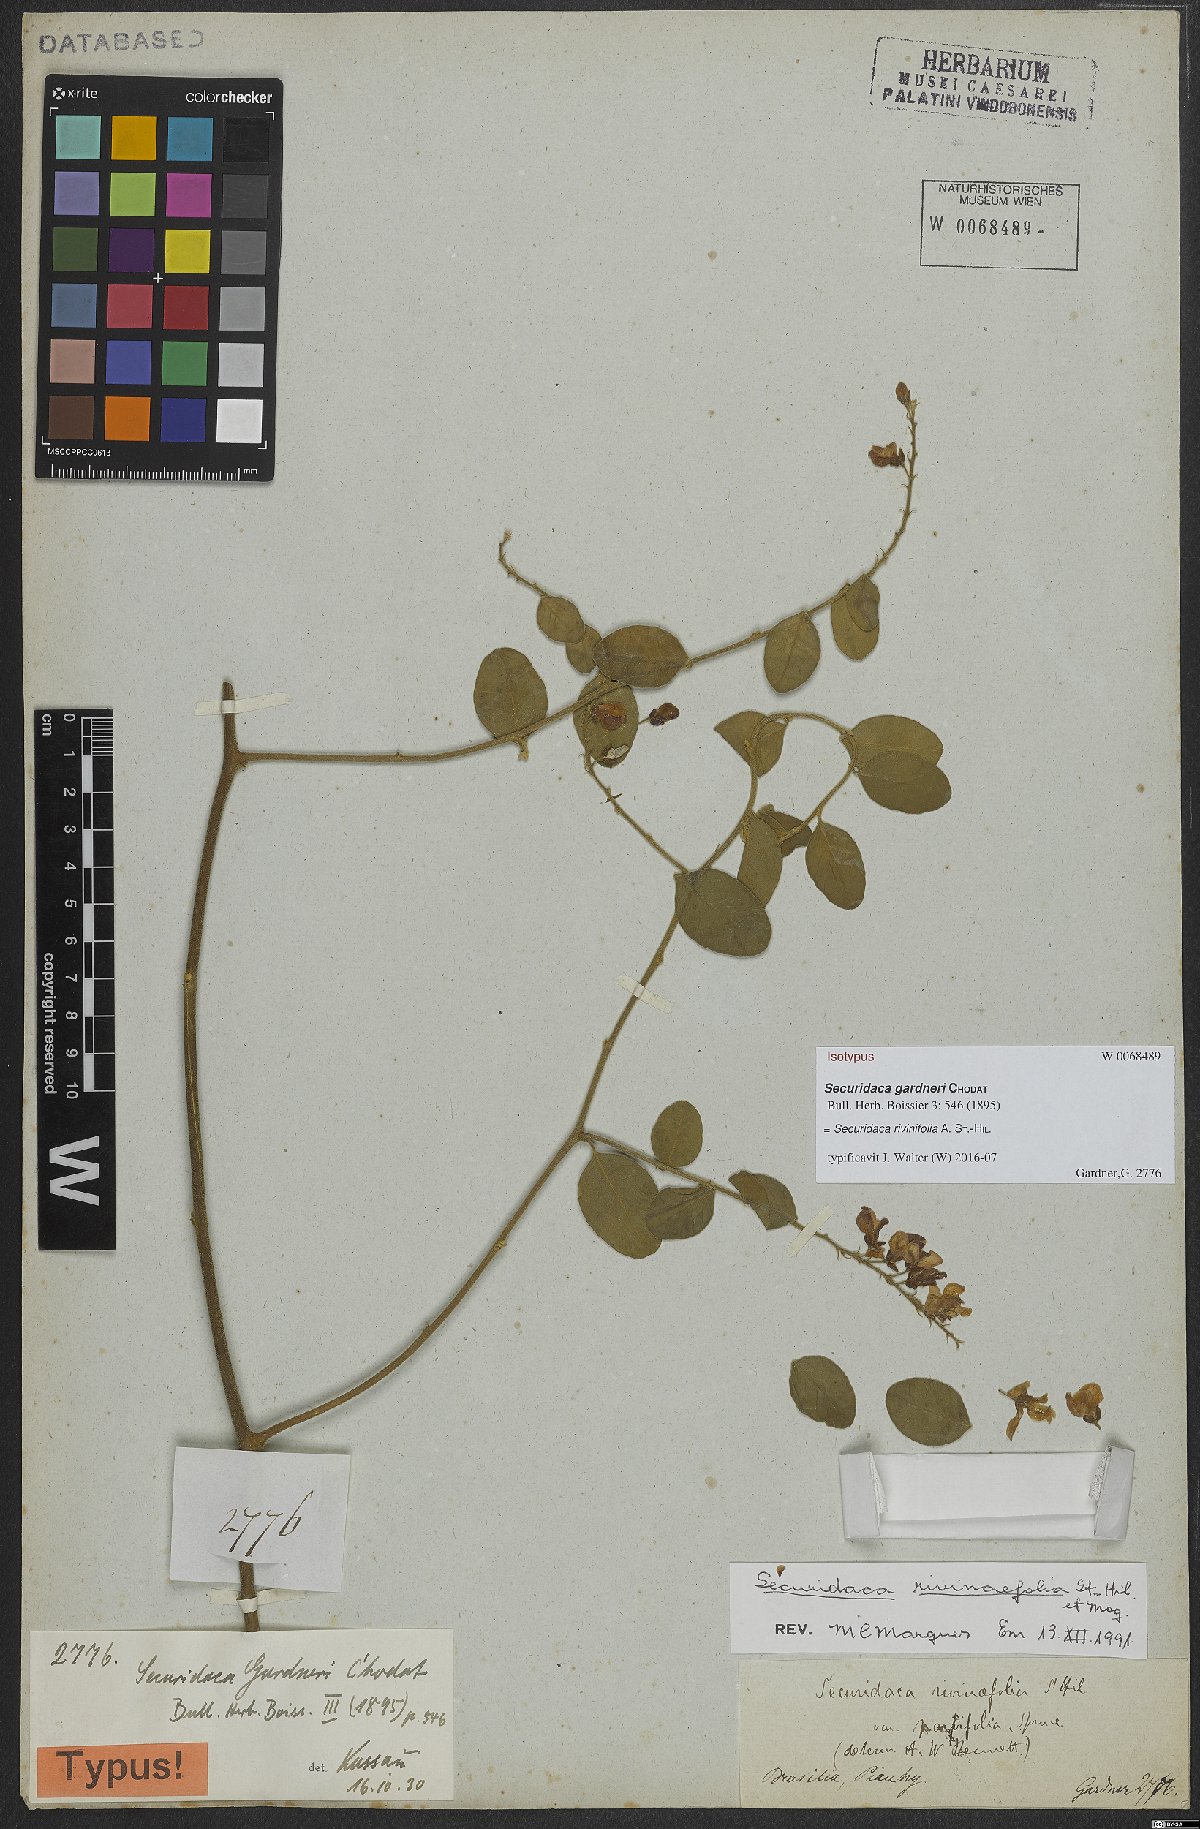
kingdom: Plantae
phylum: Tracheophyta
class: Magnoliopsida
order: Fabales
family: Polygalaceae
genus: Securidaca
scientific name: Securidaca rivinifolia
